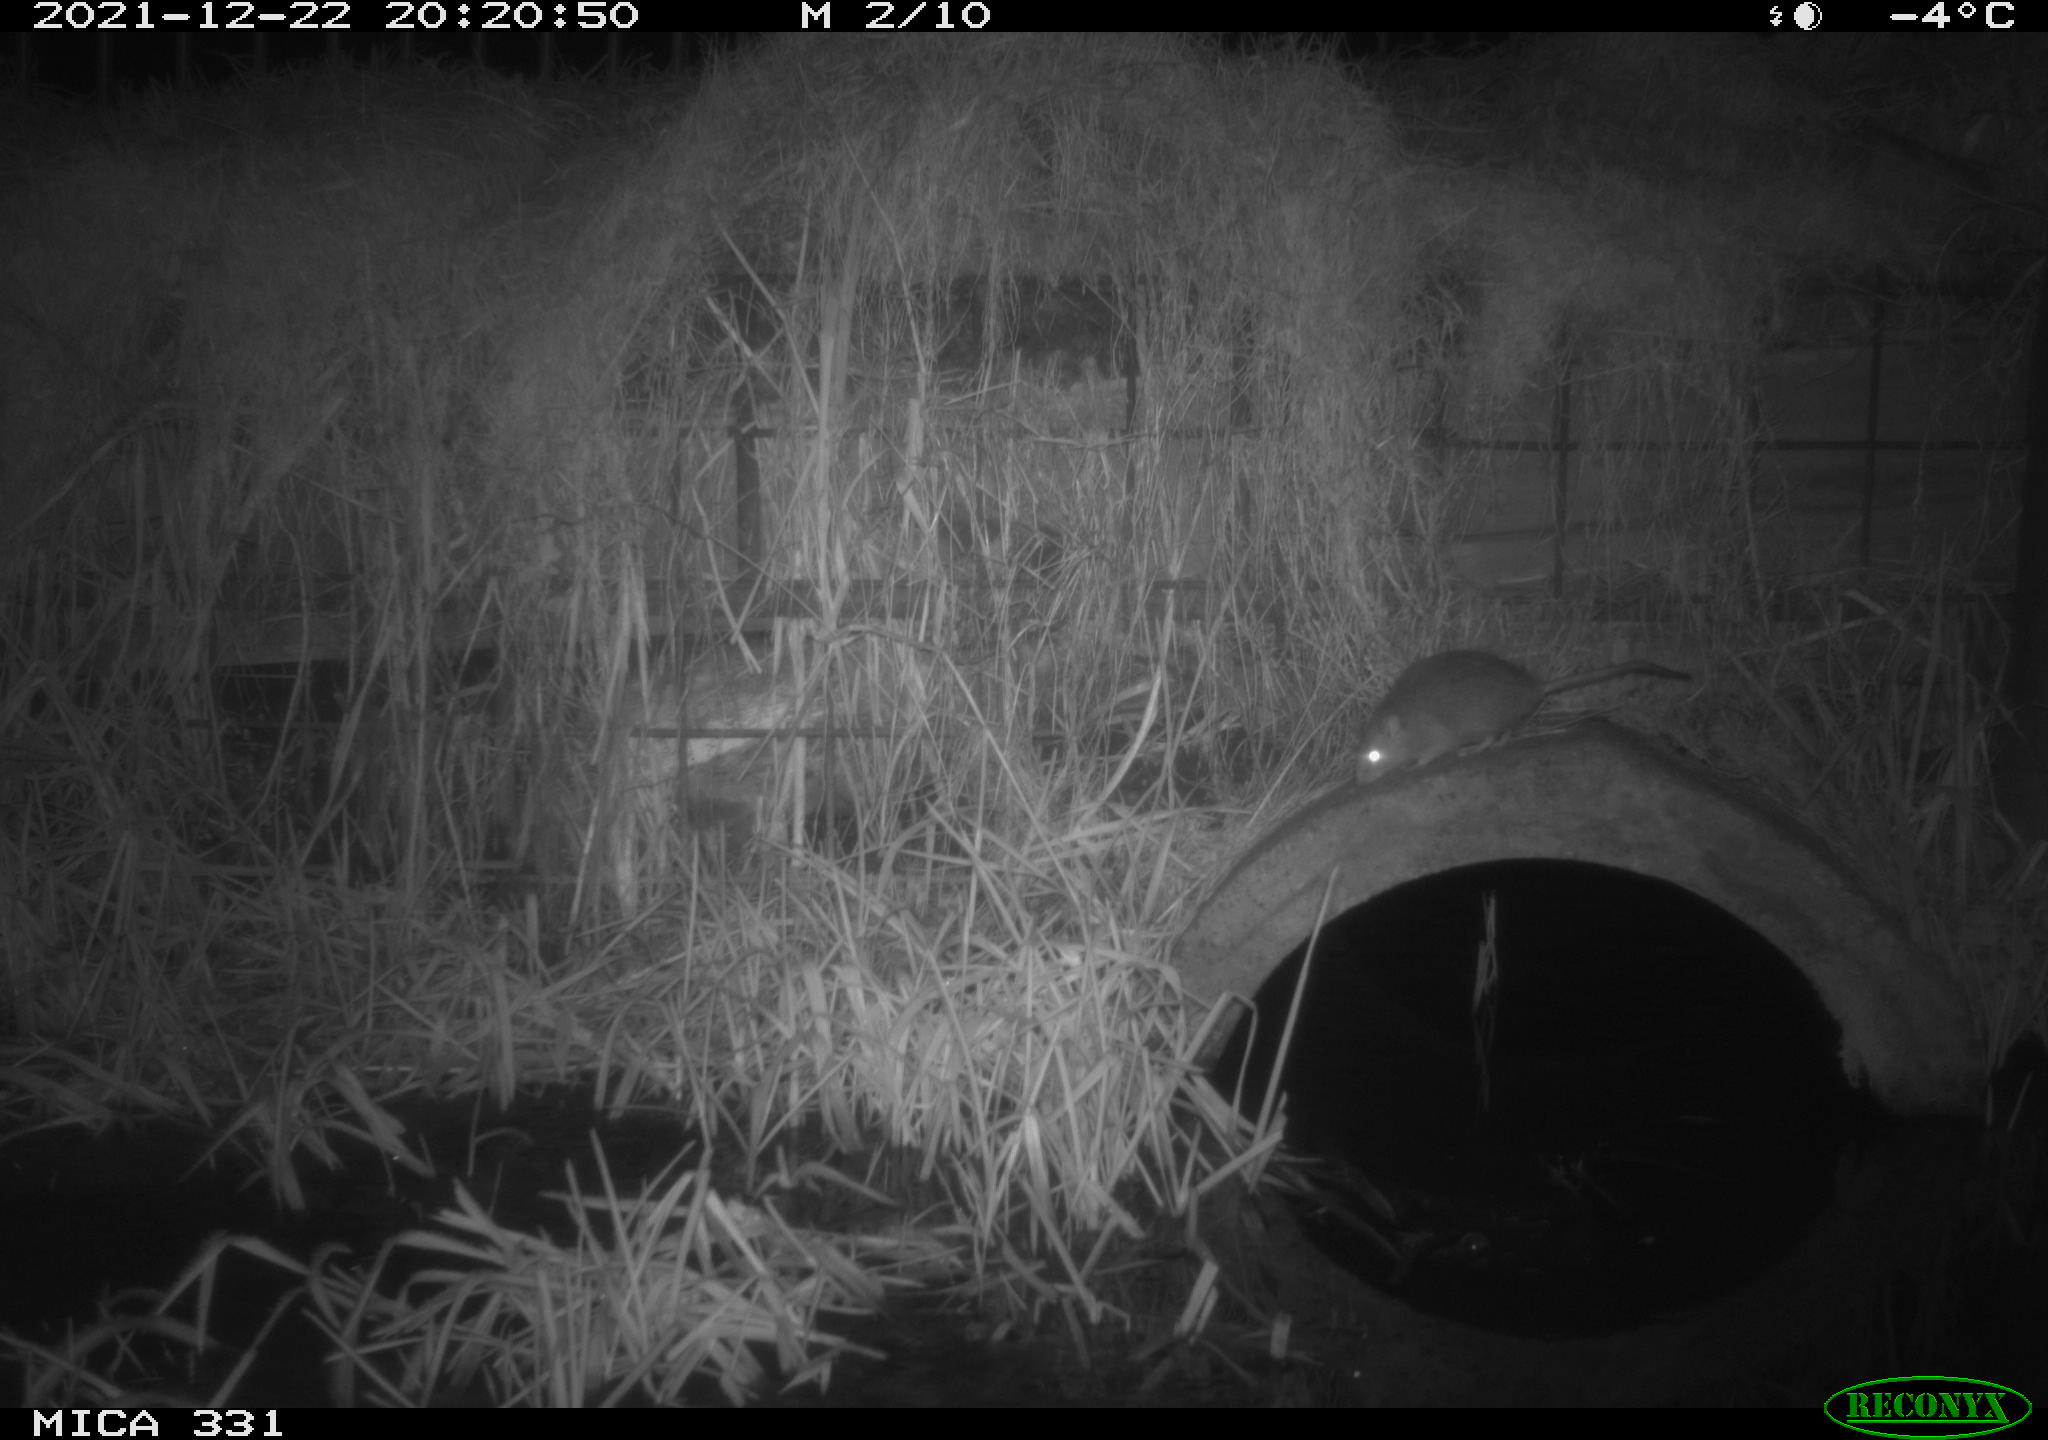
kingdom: Animalia
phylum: Chordata
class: Mammalia
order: Rodentia
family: Muridae
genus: Rattus
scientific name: Rattus norvegicus
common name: Brown rat
